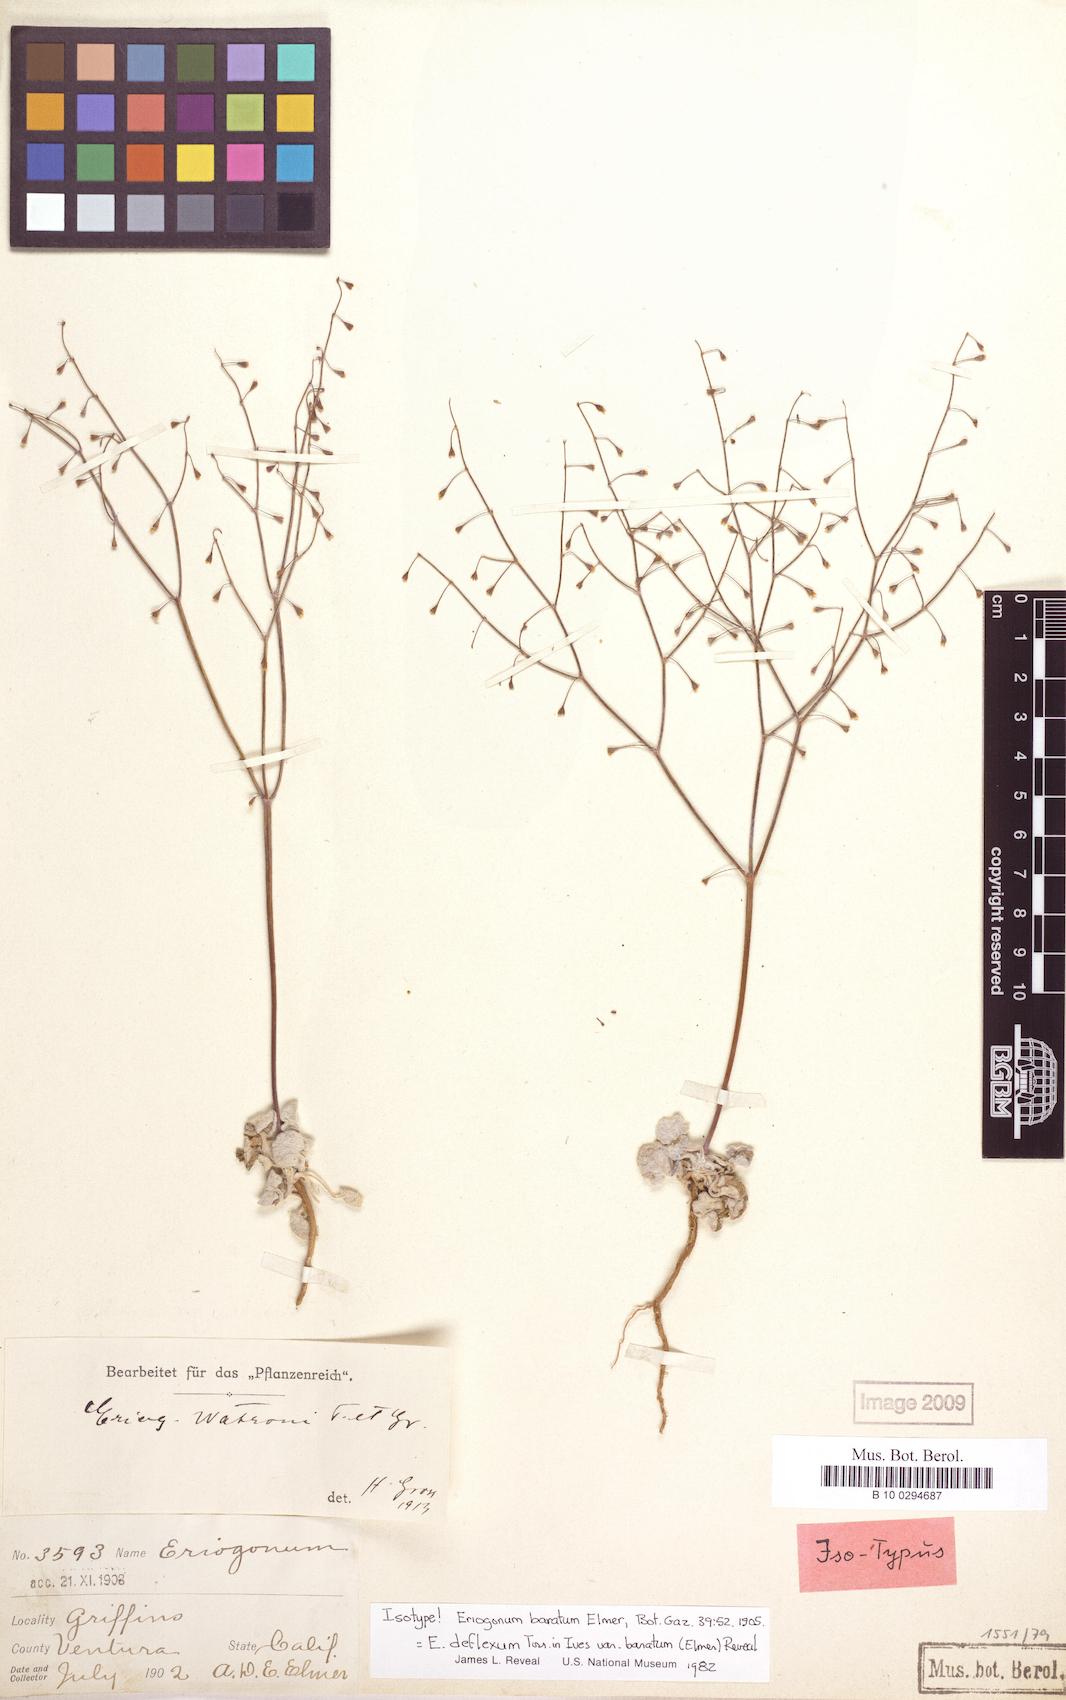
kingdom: Plantae
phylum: Tracheophyta
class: Magnoliopsida
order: Caryophyllales
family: Polygonaceae
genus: Eriogonum
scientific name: Eriogonum deflexum
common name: Skeleton-weed
